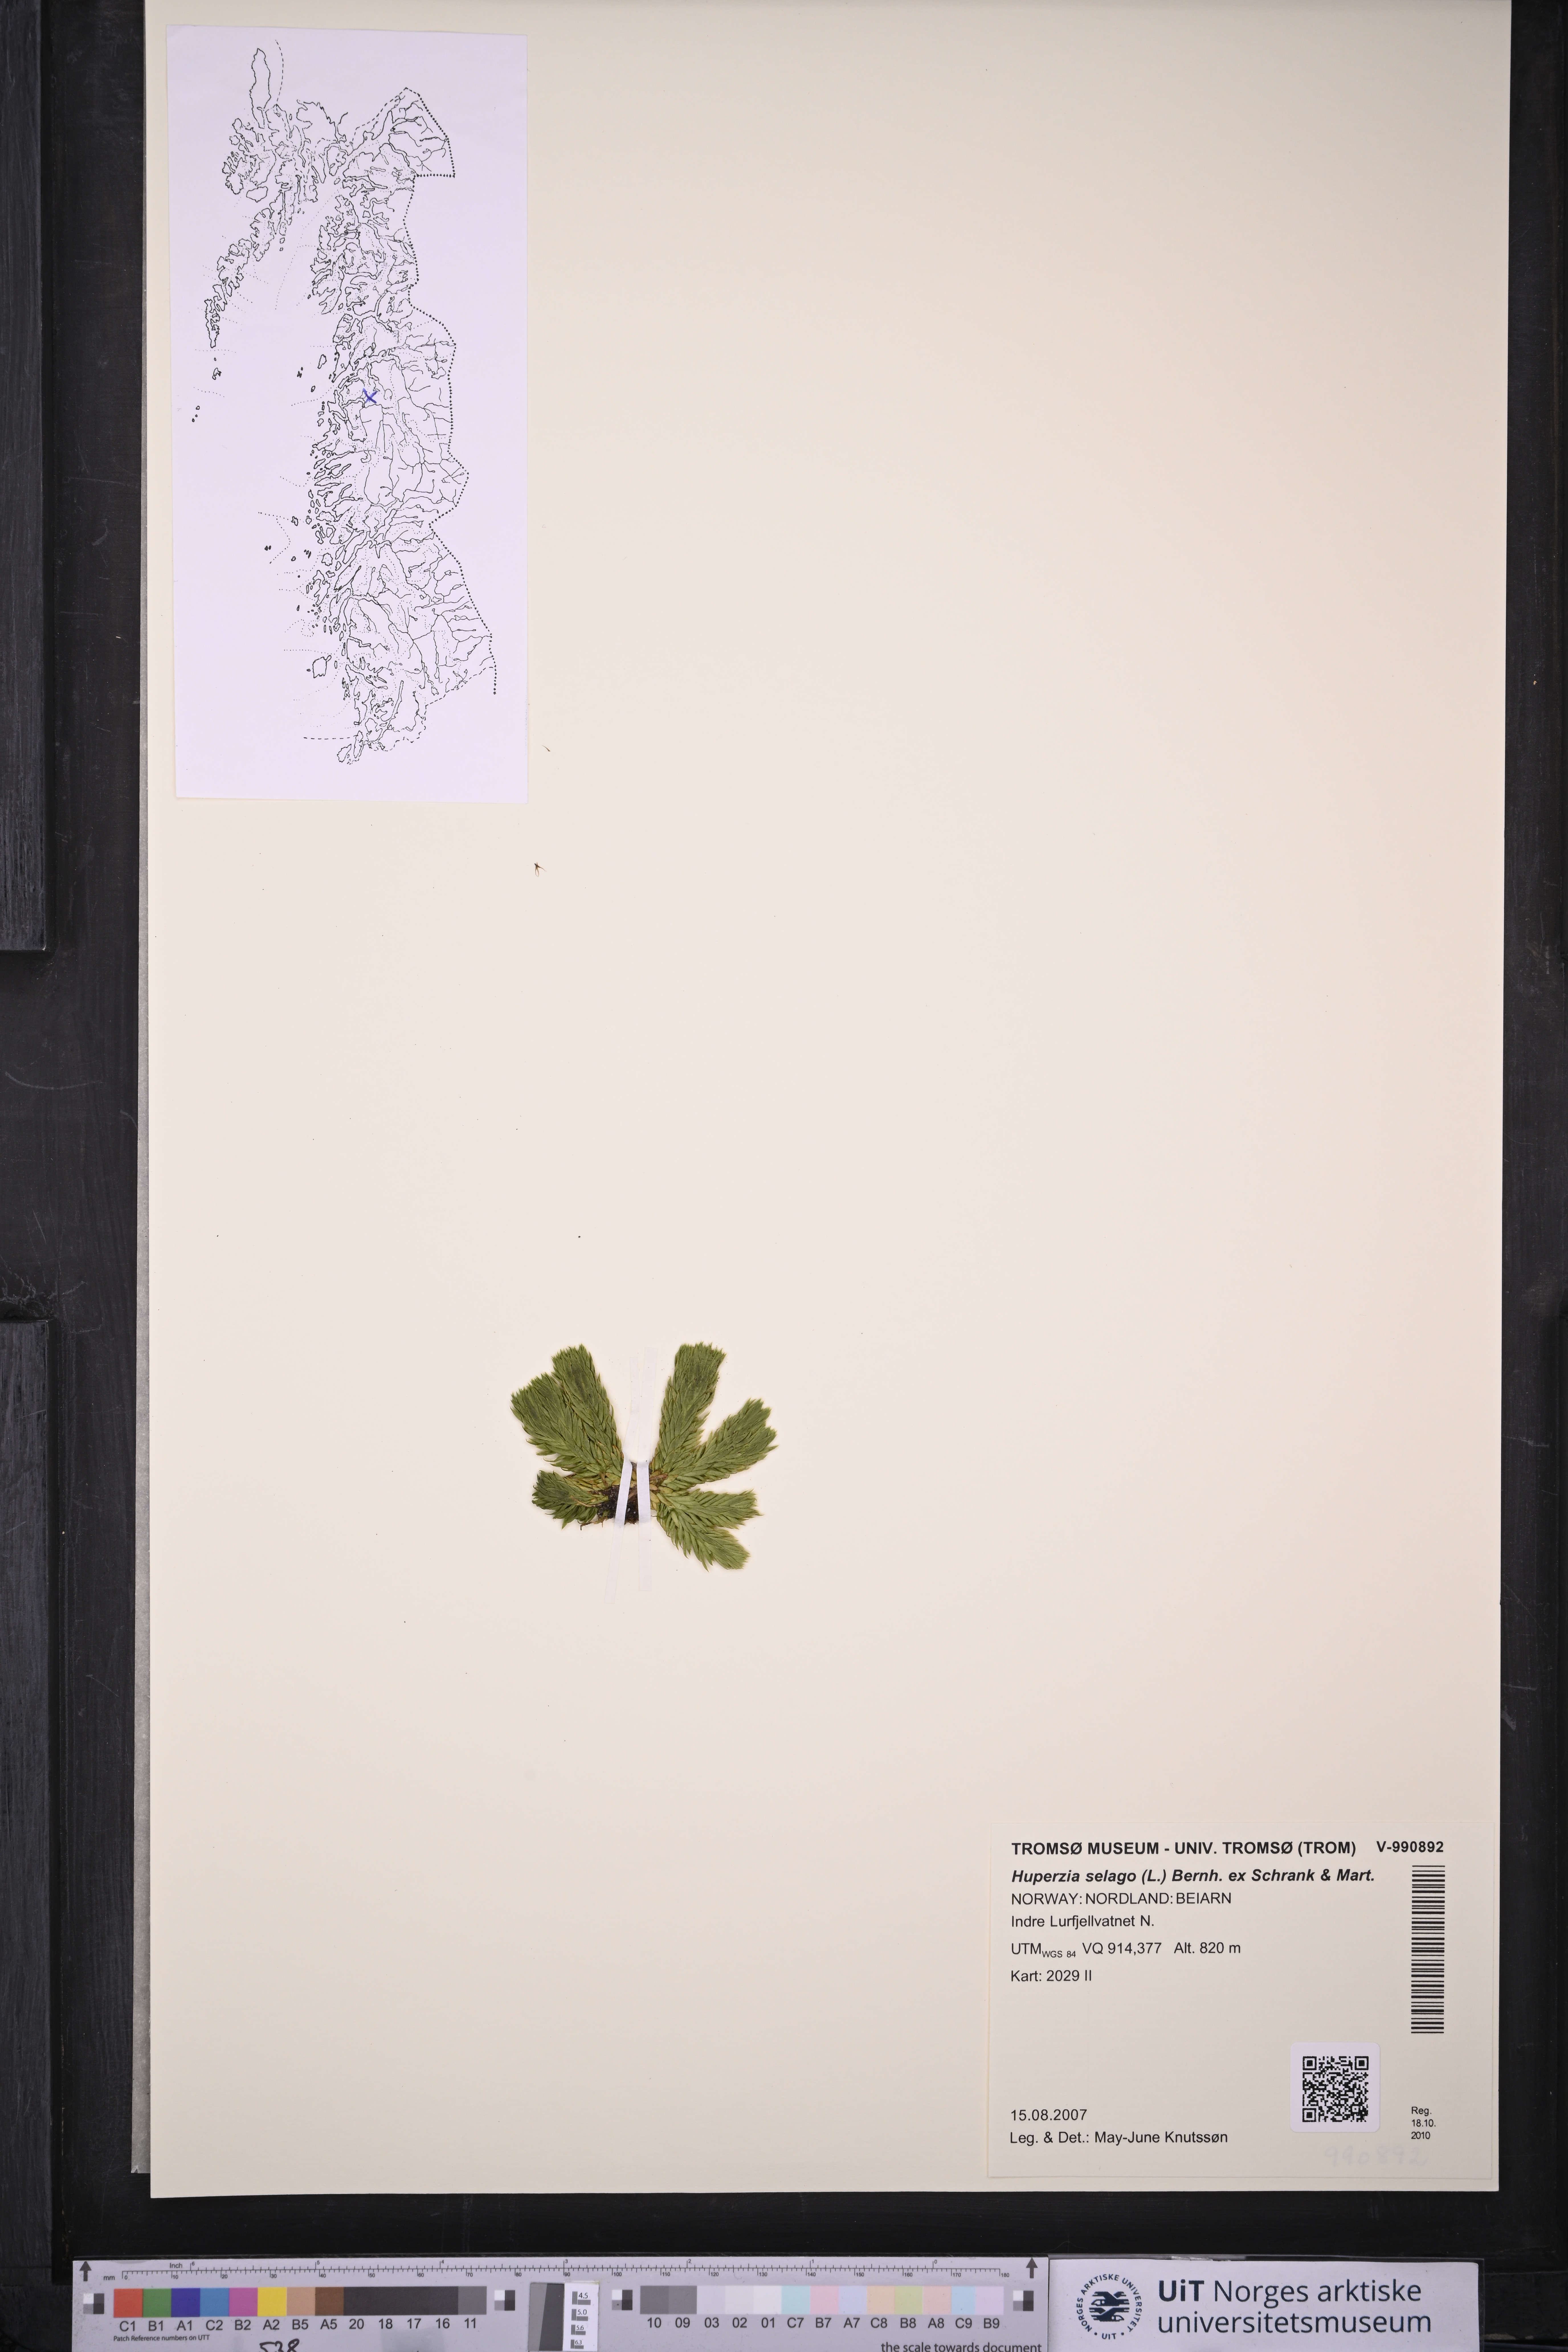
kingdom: Plantae
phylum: Tracheophyta
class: Lycopodiopsida
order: Lycopodiales
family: Lycopodiaceae
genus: Huperzia
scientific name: Huperzia selago
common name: Northern firmoss
